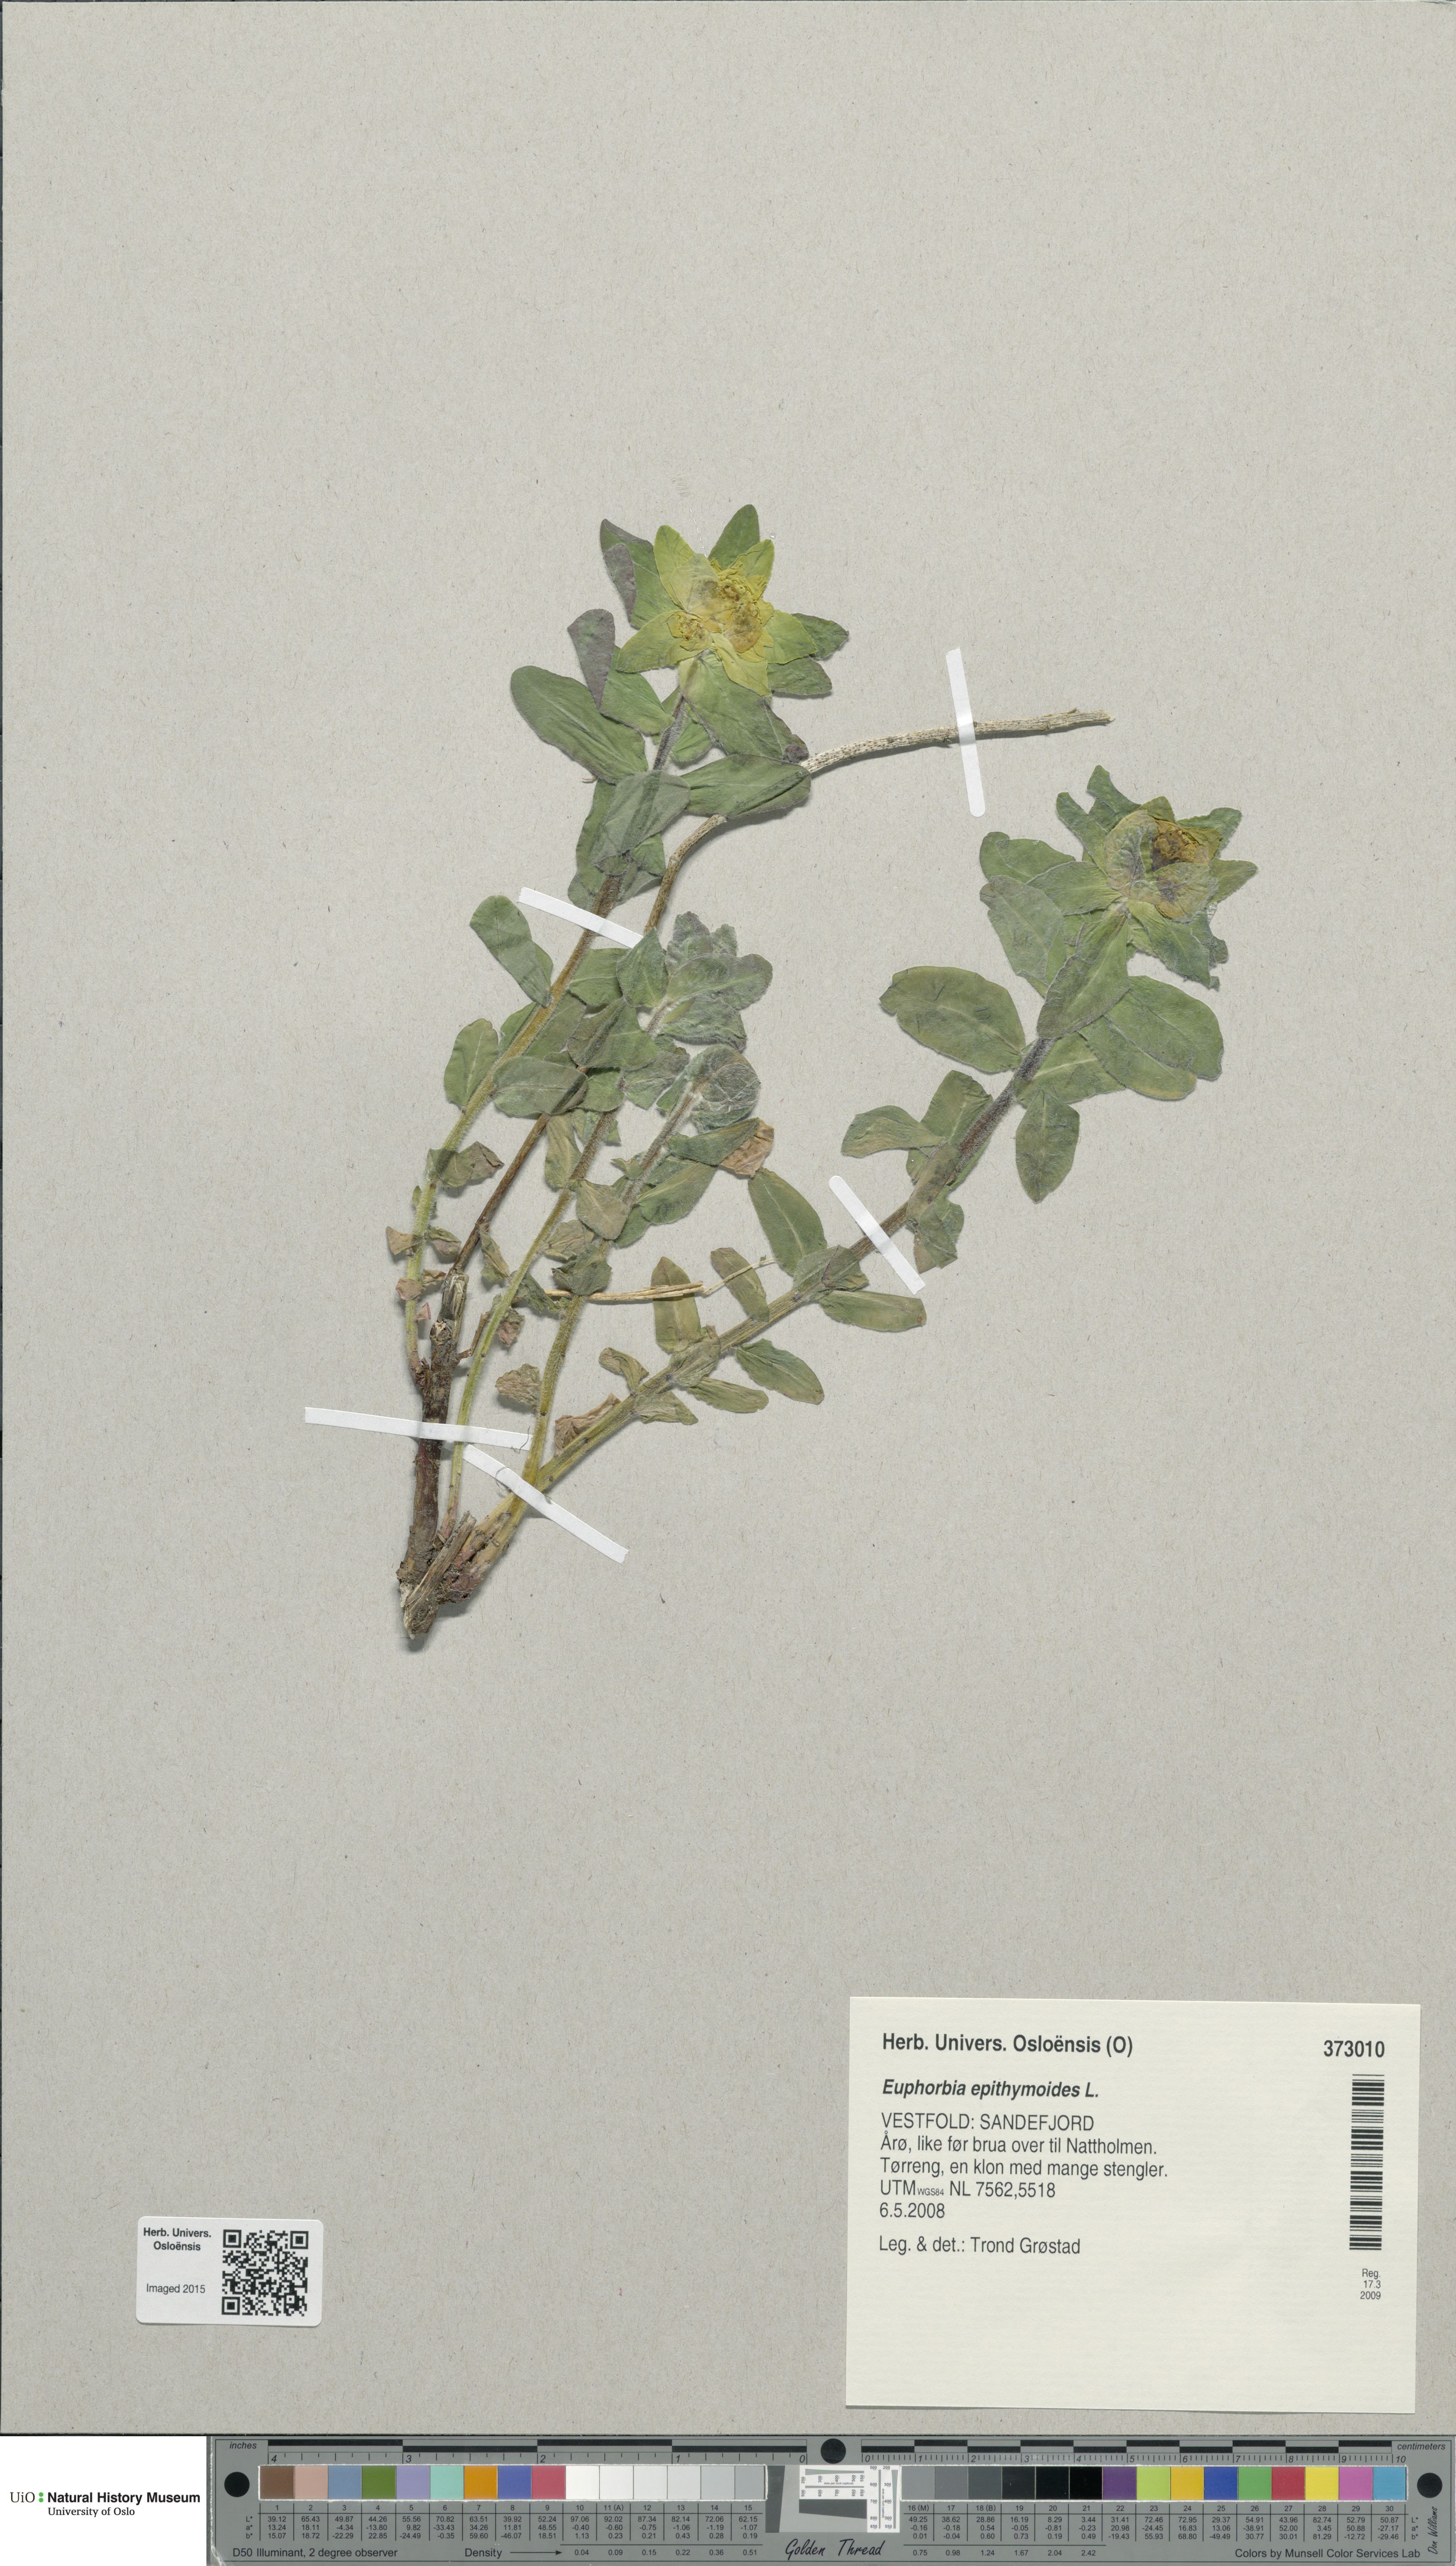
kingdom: Plantae
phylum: Tracheophyta
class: Magnoliopsida
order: Malpighiales
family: Euphorbiaceae
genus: Euphorbia
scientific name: Euphorbia epithymoides
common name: Cushion spurge
